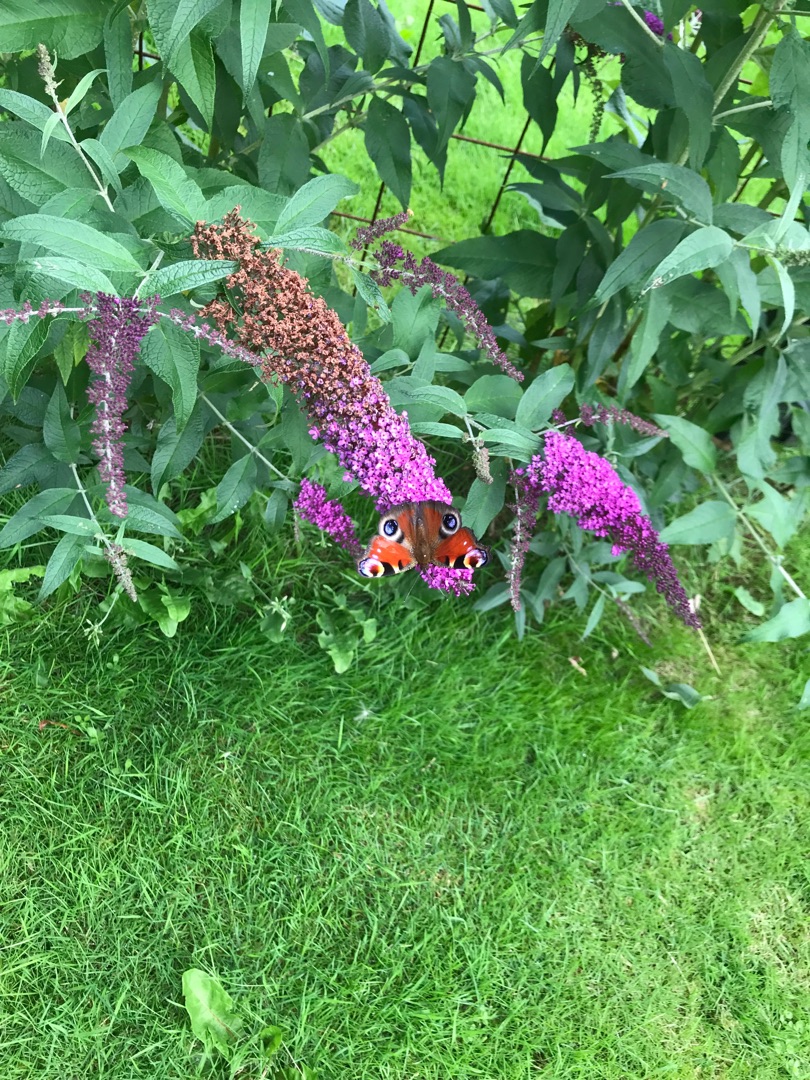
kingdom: Animalia
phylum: Arthropoda
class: Insecta
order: Lepidoptera
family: Nymphalidae
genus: Aglais
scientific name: Aglais io
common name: Dagpåfugleøje
